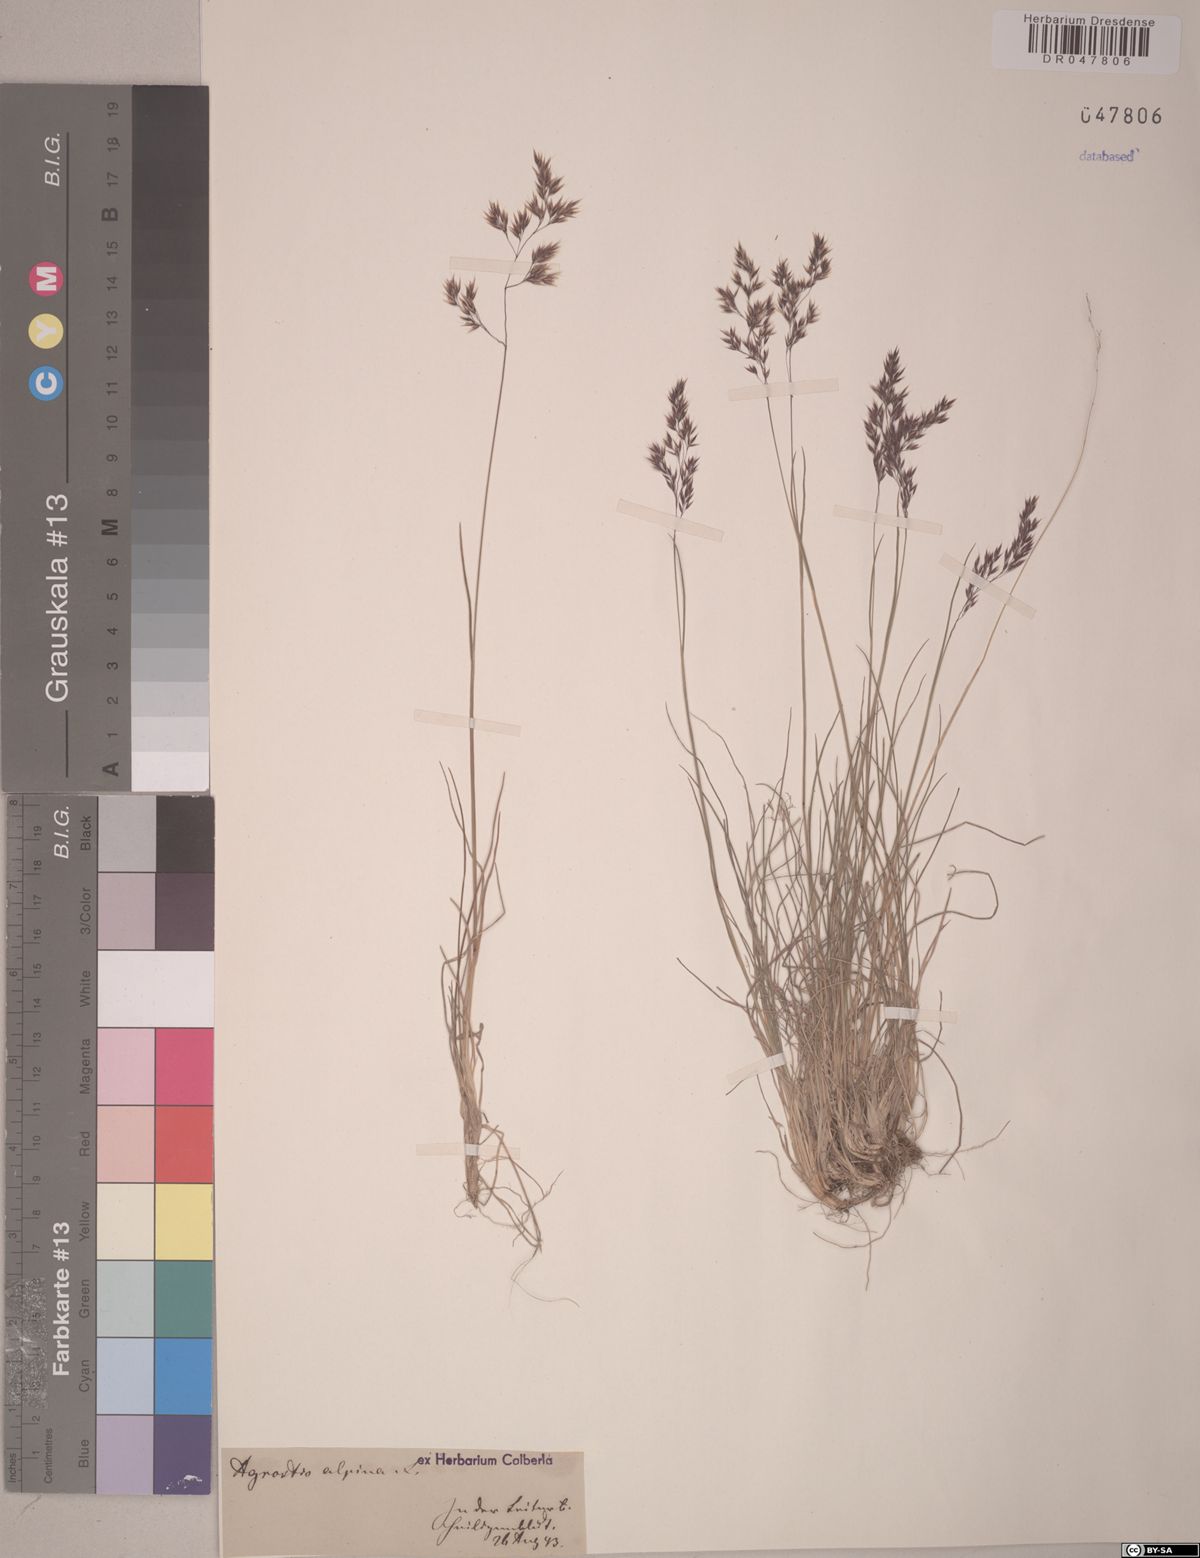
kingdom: Plantae
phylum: Tracheophyta
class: Liliopsida
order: Poales
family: Poaceae
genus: Alpagrostis
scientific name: Alpagrostis alpina
